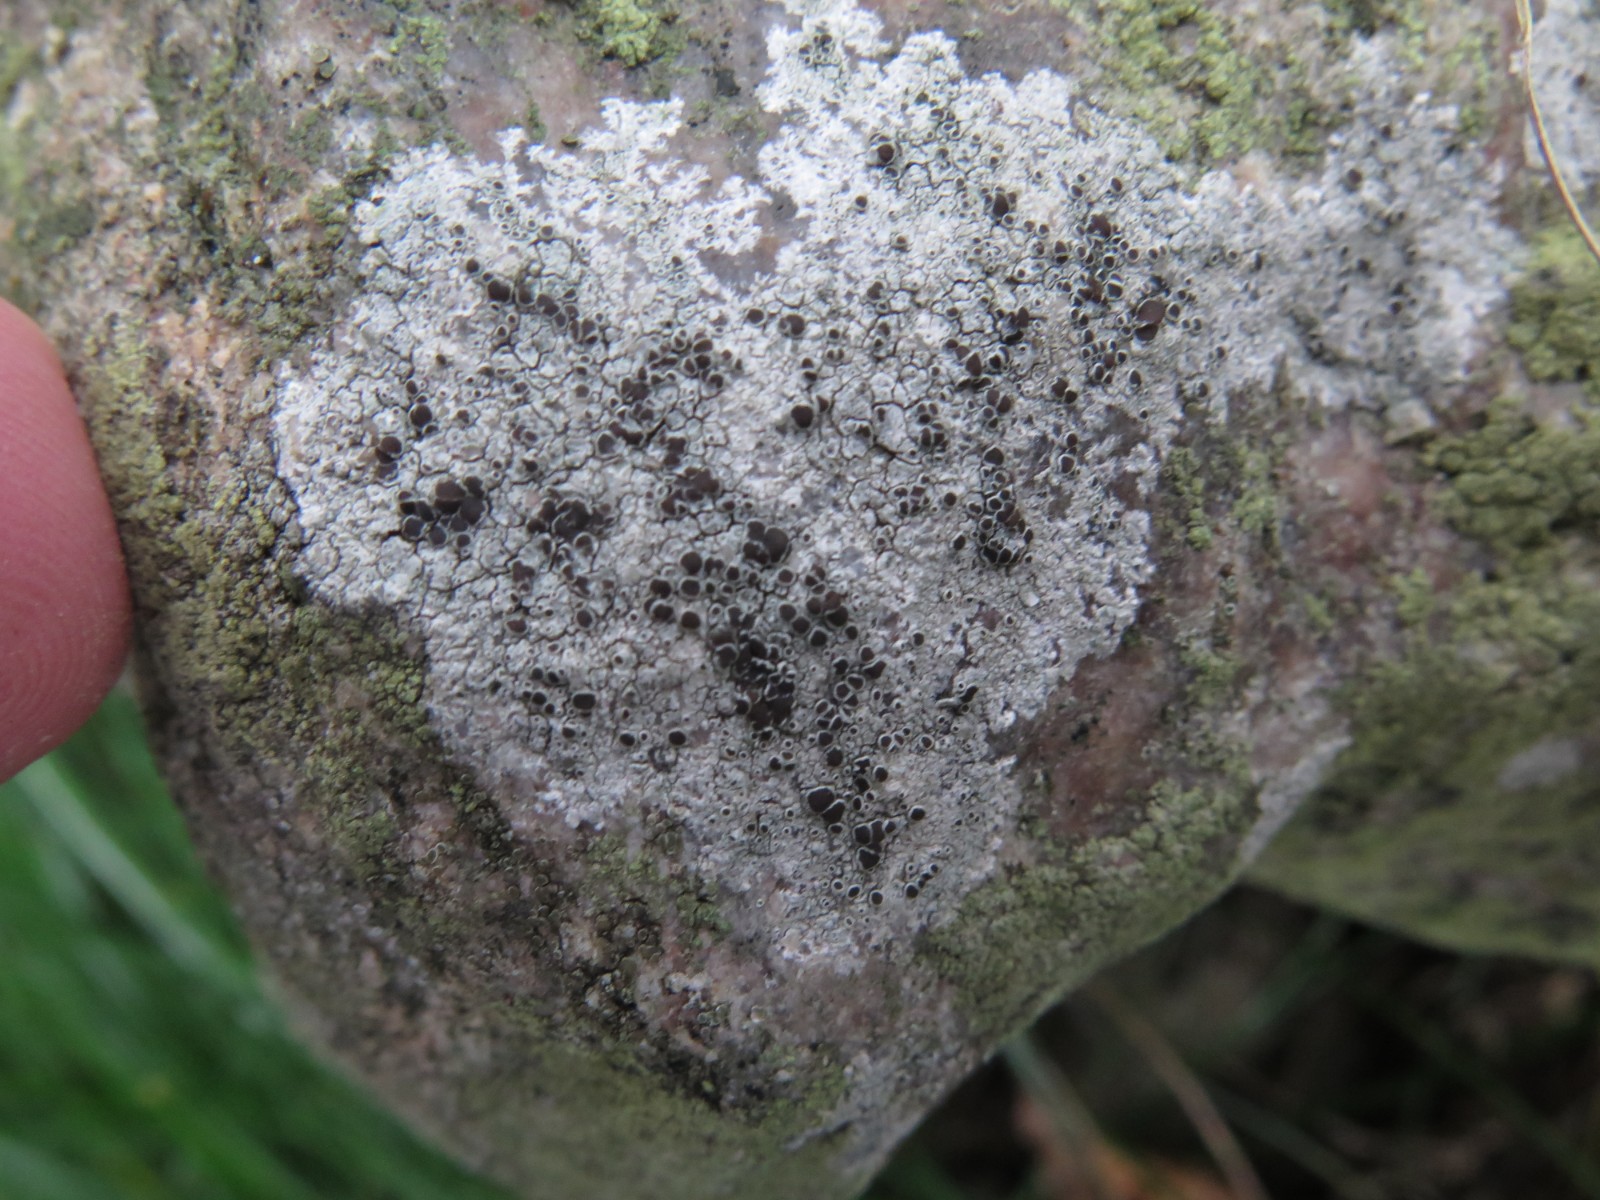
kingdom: Fungi
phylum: Ascomycota
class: Lecanoromycetes
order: Lecanorales
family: Tephromelataceae
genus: Tephromela
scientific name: Tephromela atra
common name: sortfrugtet kantskivelav
